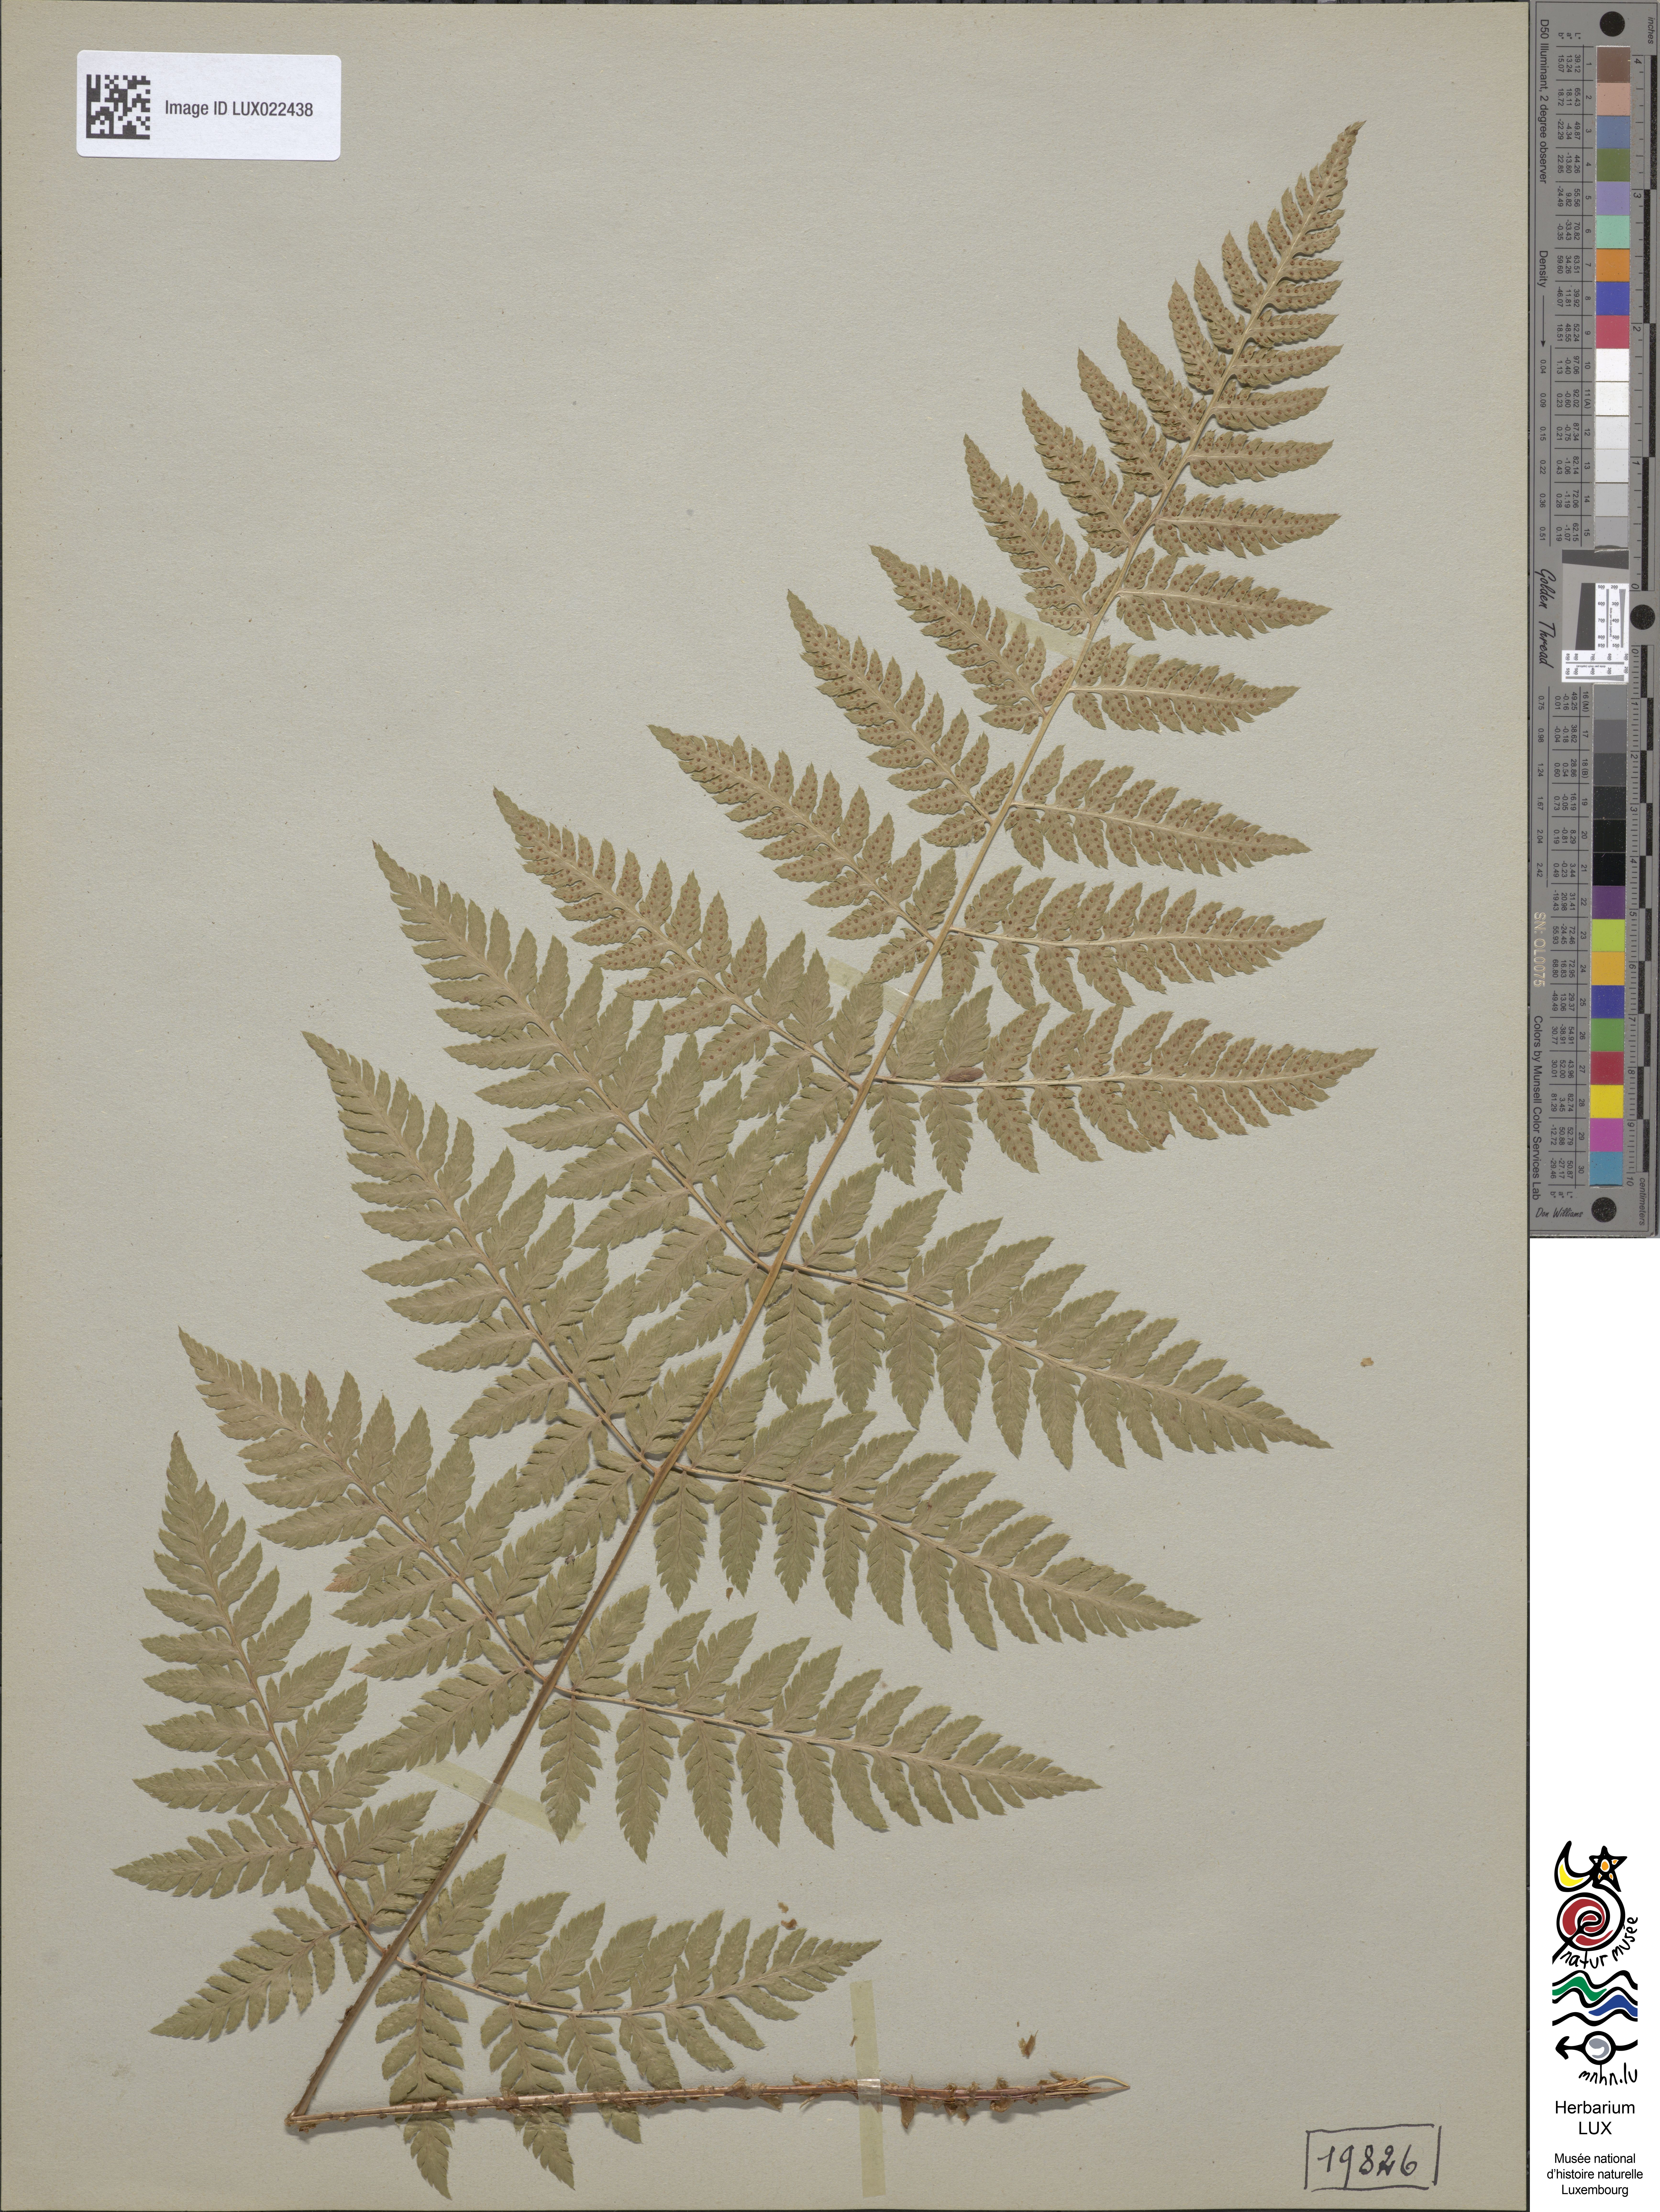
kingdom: Plantae
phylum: Tracheophyta
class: Polypodiopsida
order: Polypodiales
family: Dryopteridaceae
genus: Dryopteris
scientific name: Dryopteris carthusiana
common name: Narrow buckler-fern
